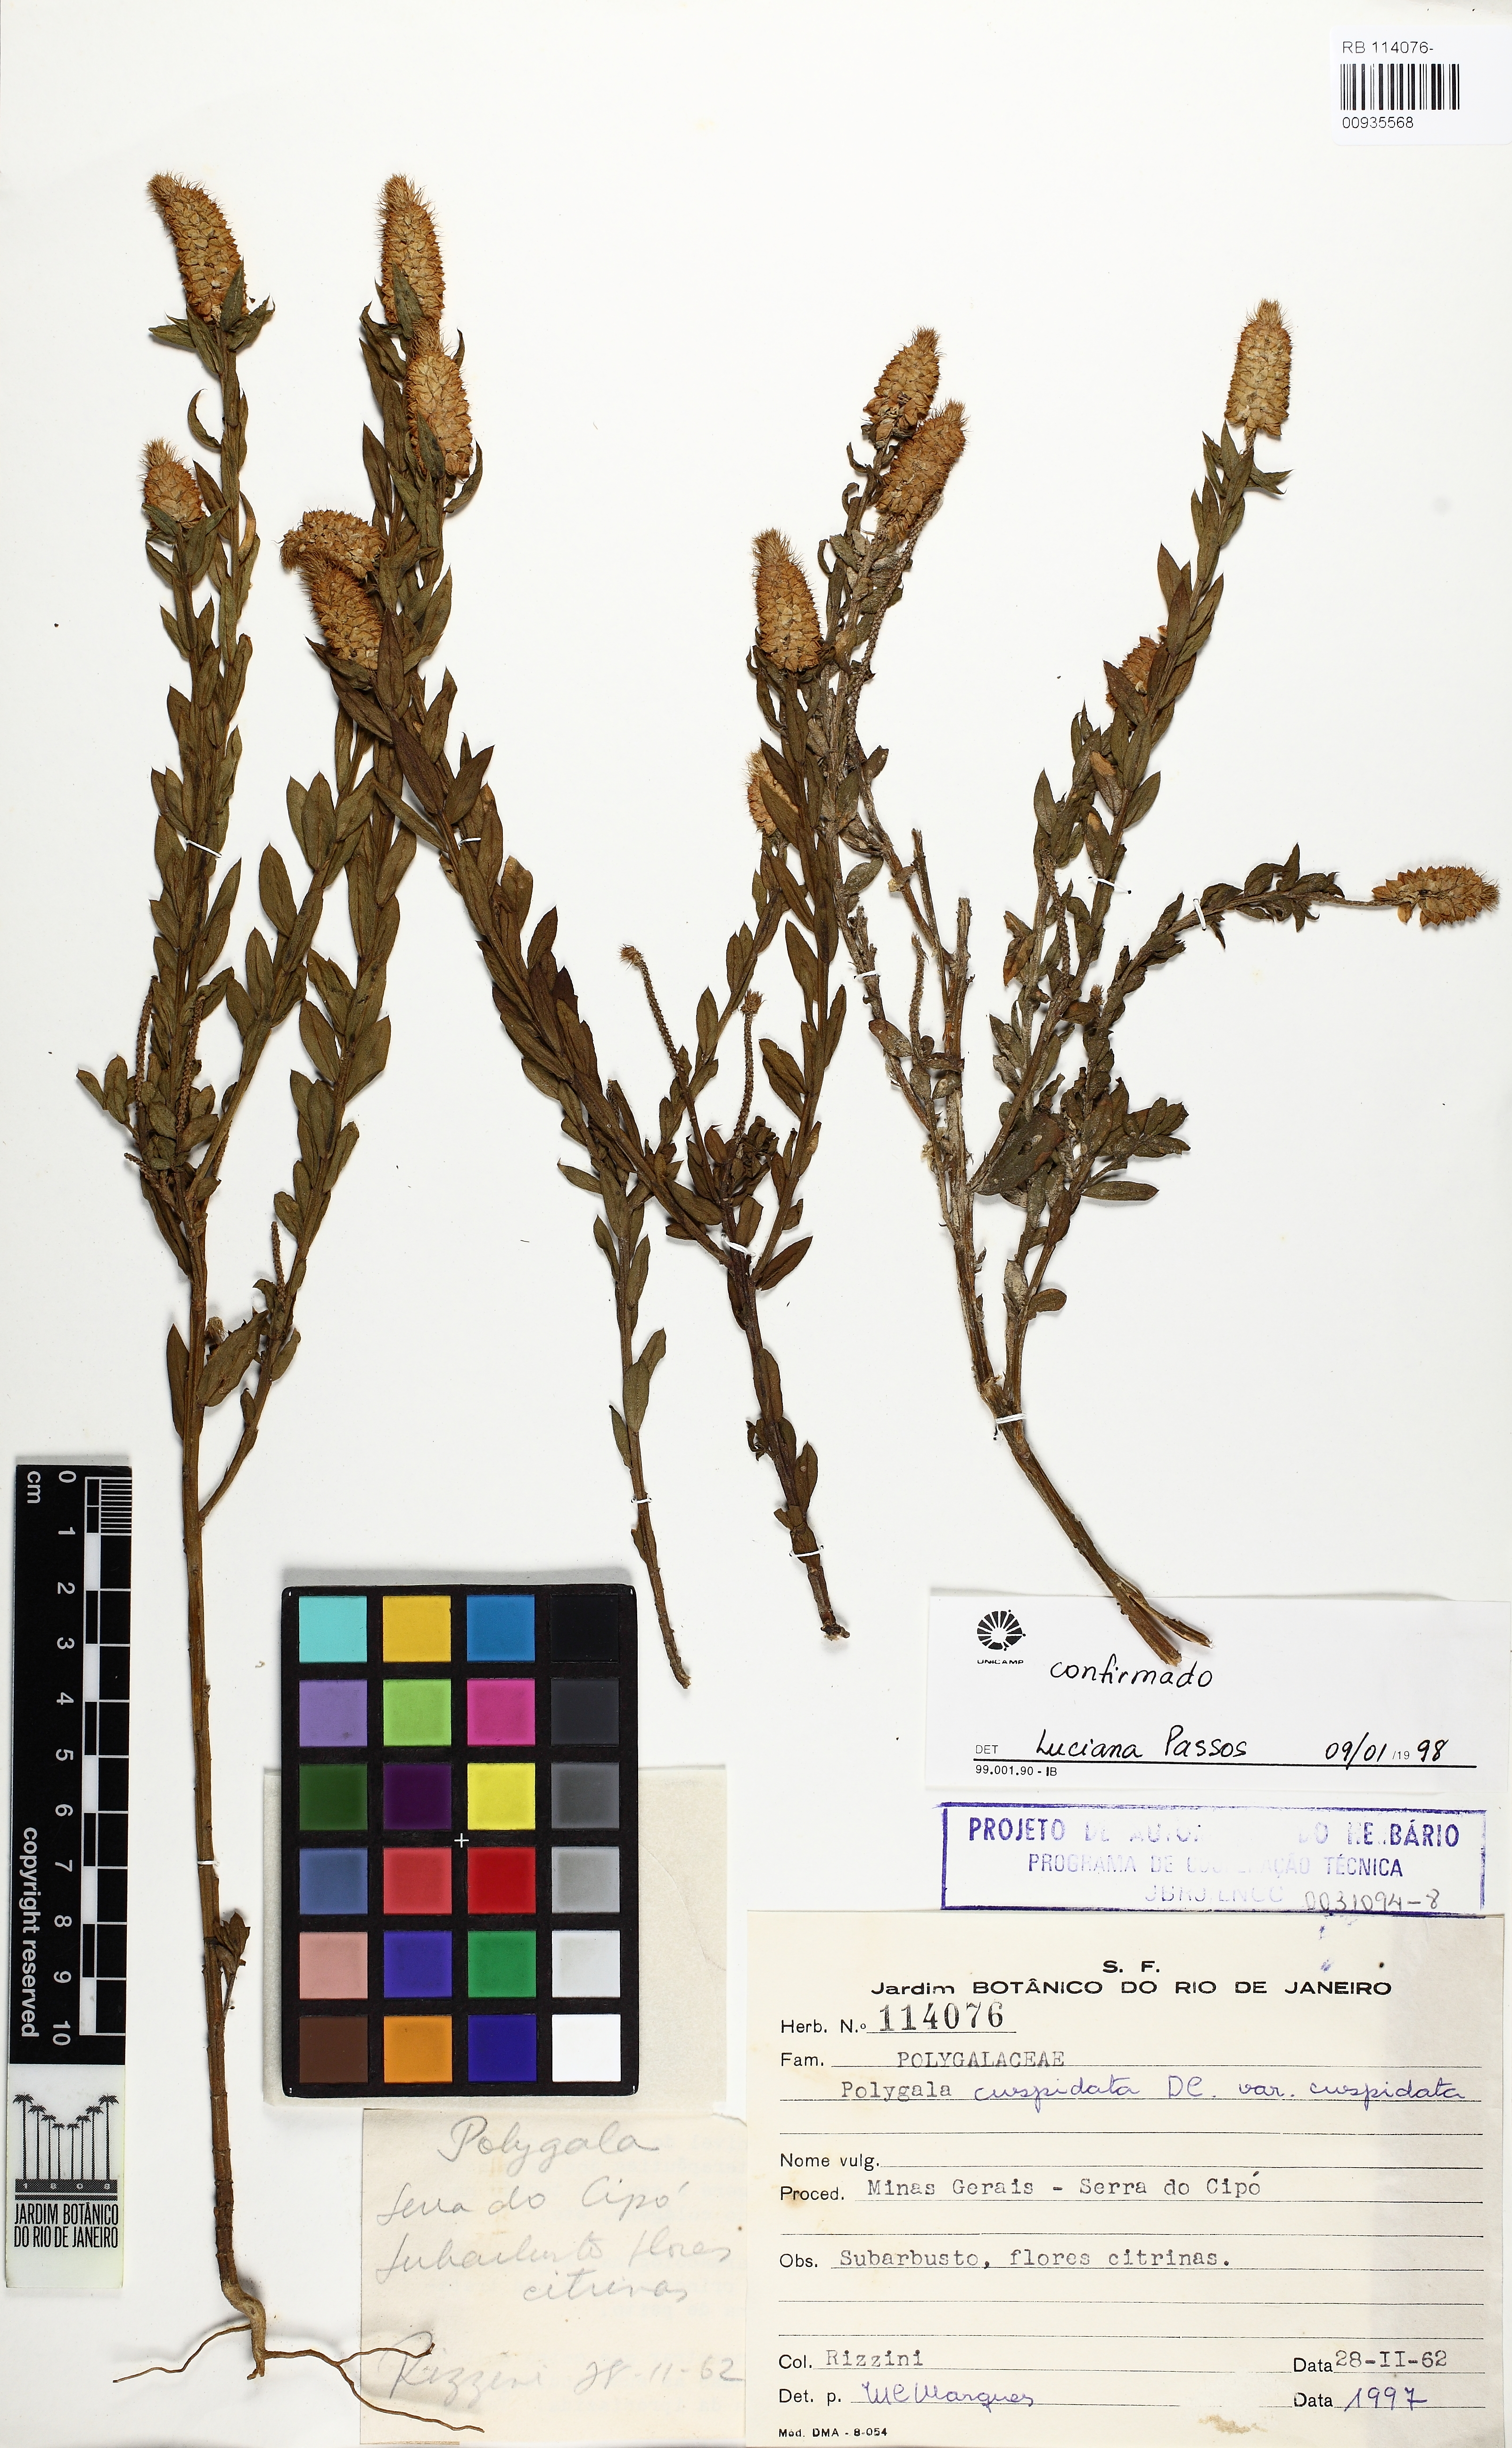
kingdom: Plantae
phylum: Tracheophyta
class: Magnoliopsida
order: Fabales
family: Polygalaceae
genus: Polygala
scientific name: Polygala cuspidata
